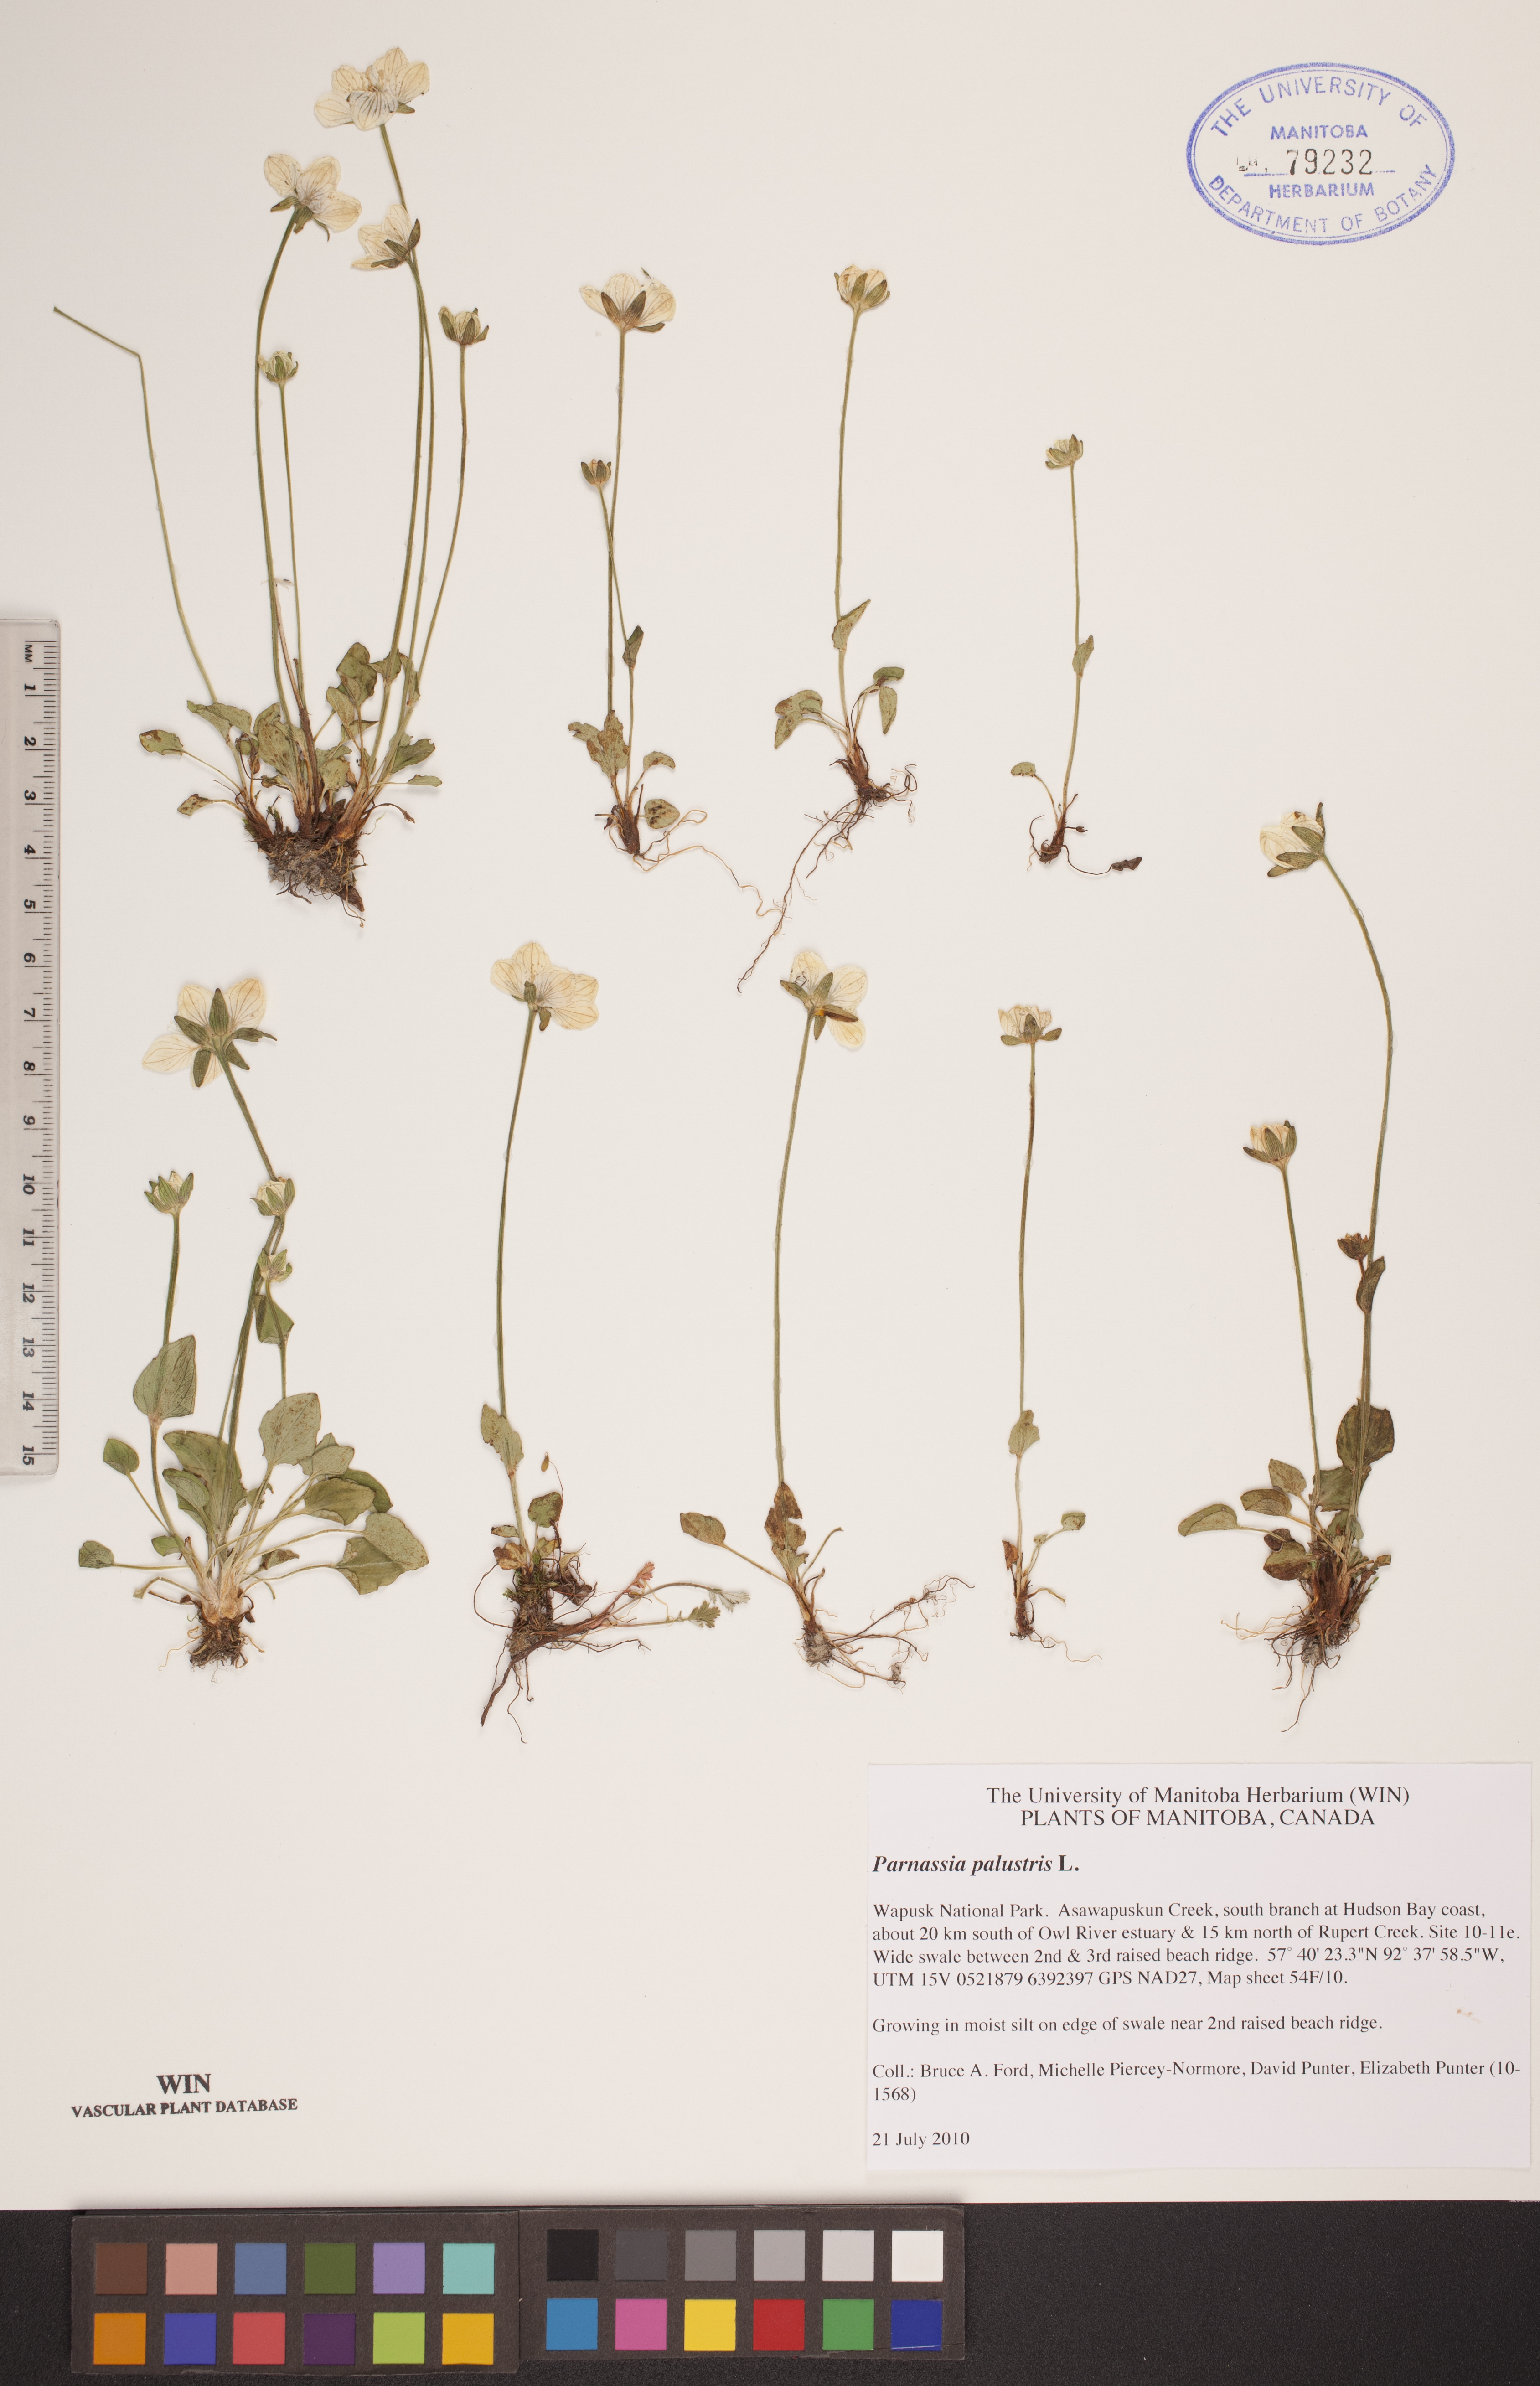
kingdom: Plantae
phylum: Tracheophyta
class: Magnoliopsida
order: Celastrales
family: Parnassiaceae
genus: Parnassia
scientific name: Parnassia palustris
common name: Grass-of-parnassus
